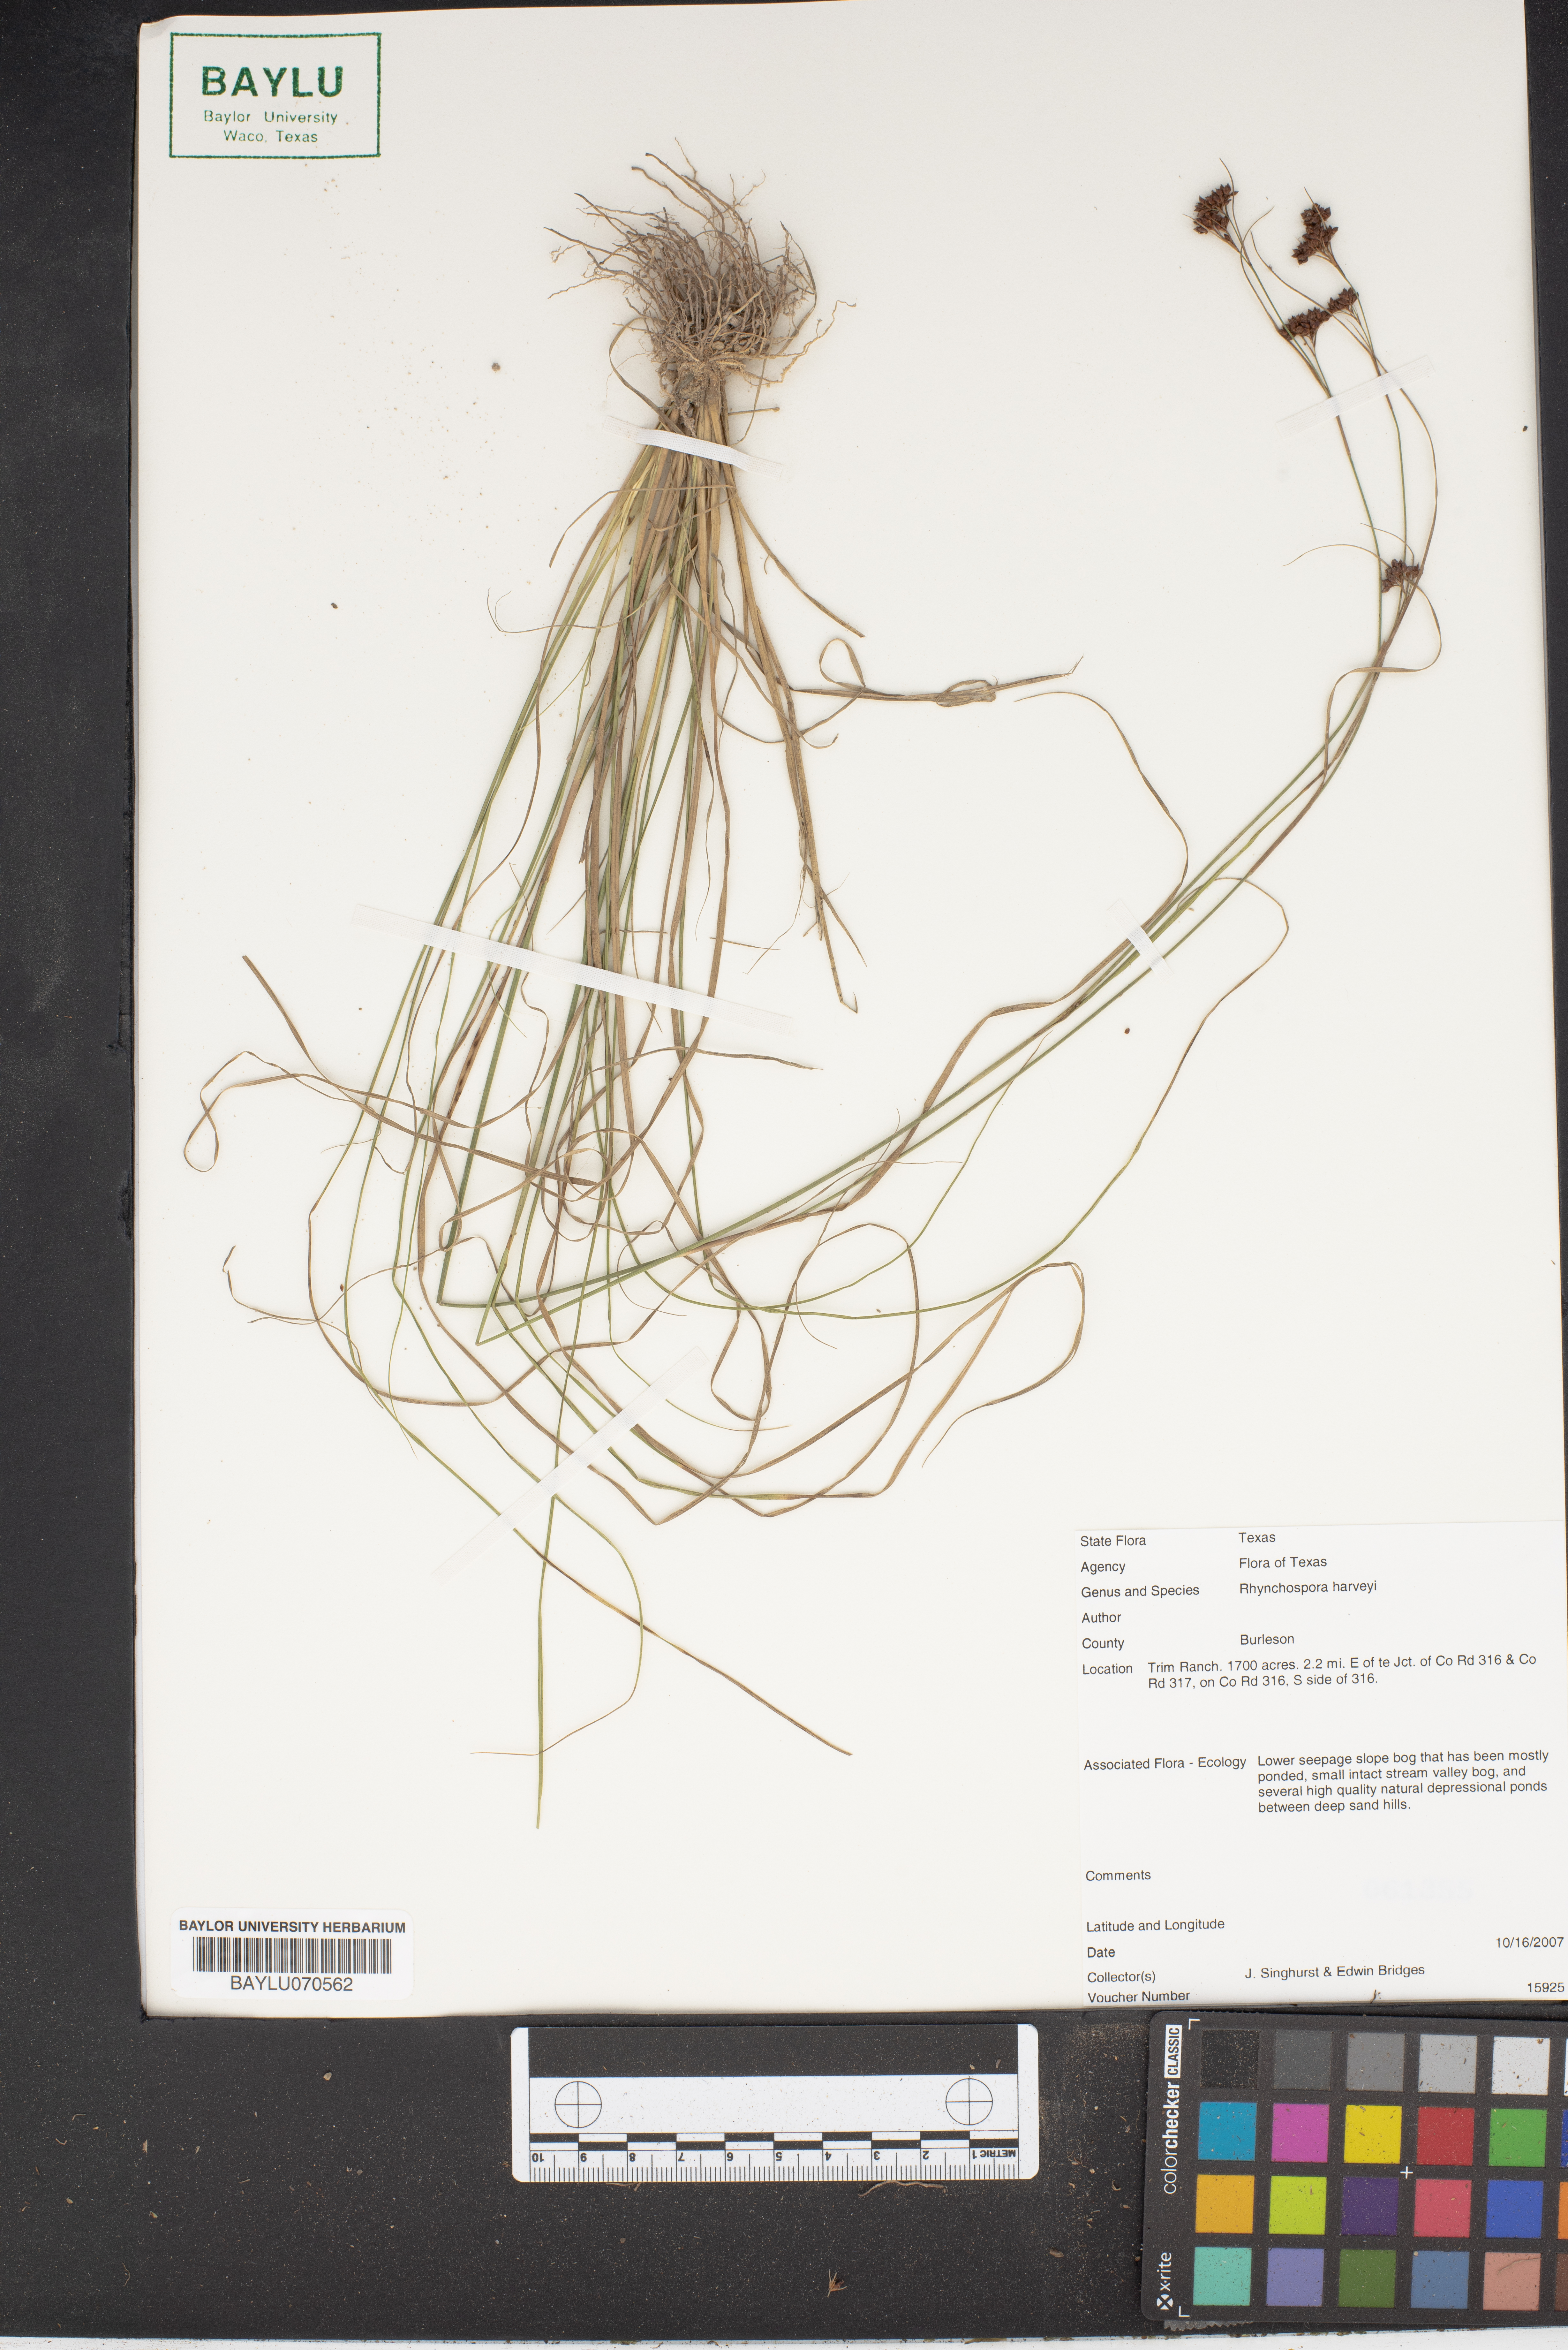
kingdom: Plantae
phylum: Tracheophyta
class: Liliopsida
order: Poales
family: Cyperaceae
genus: Rhynchospora
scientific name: Rhynchospora harveyi
